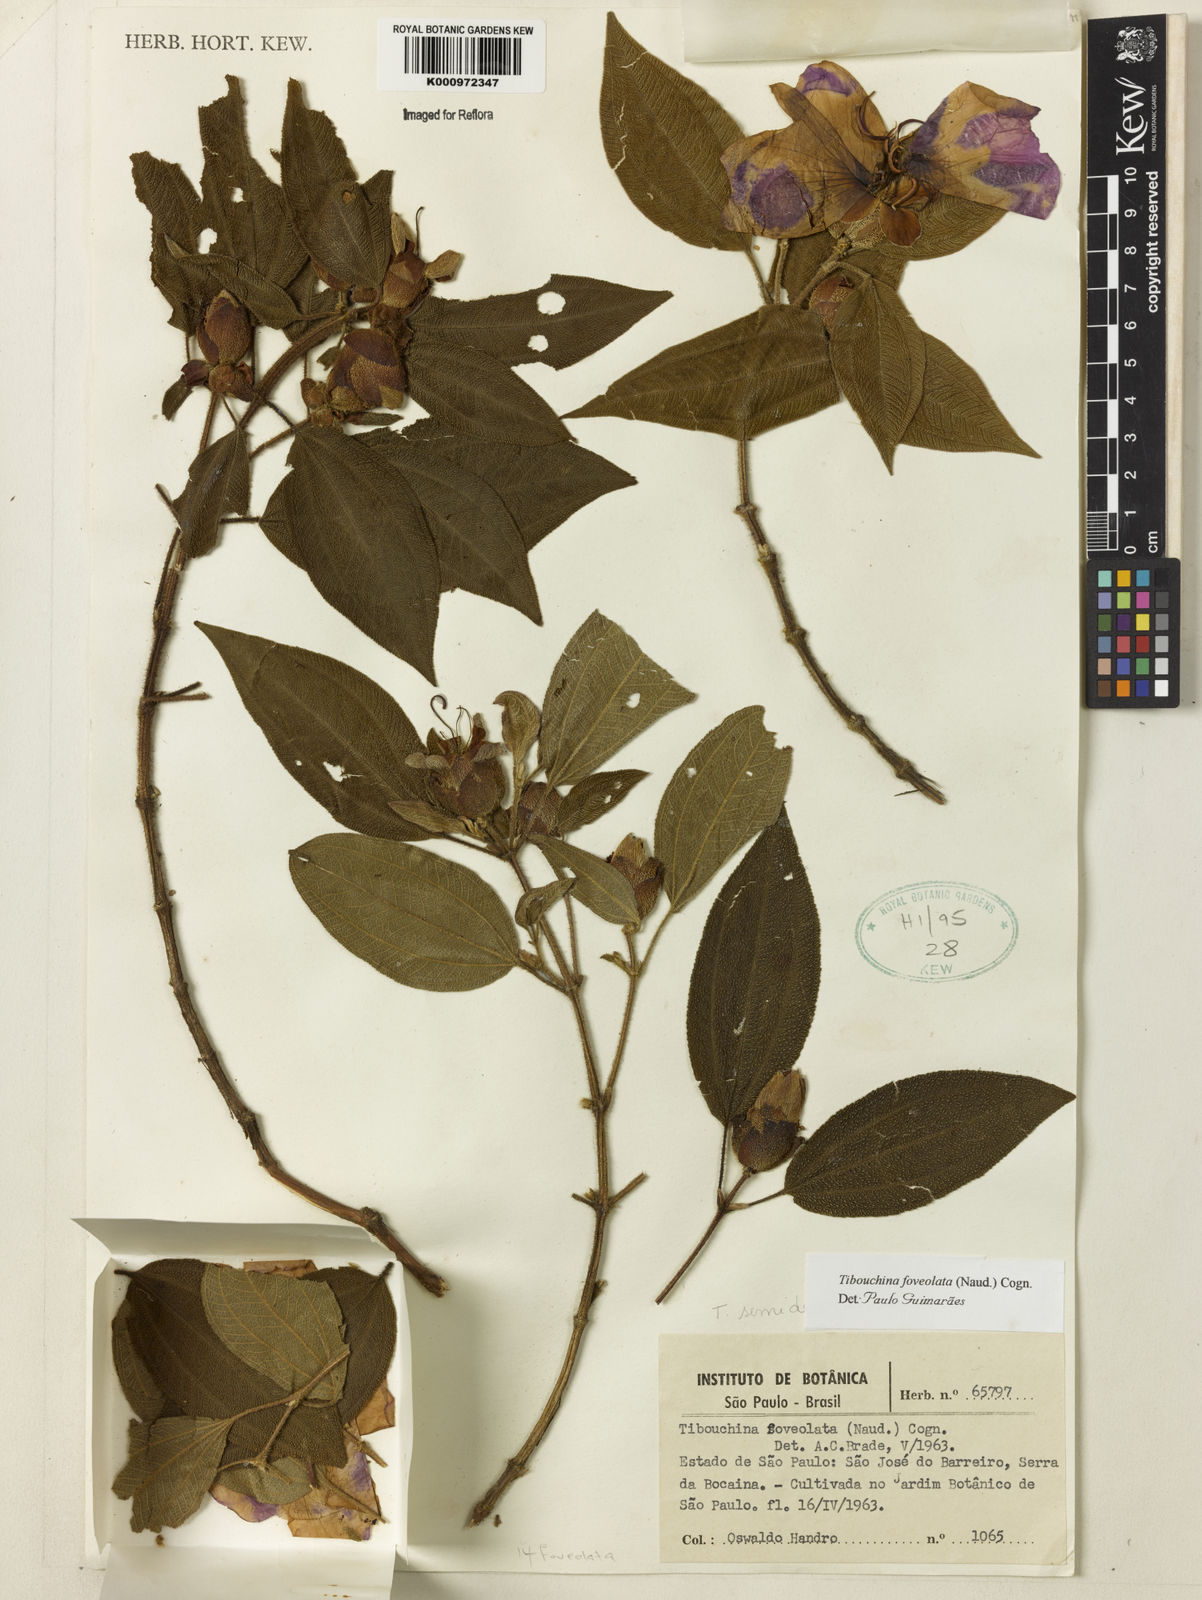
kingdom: Plantae
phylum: Tracheophyta
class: Magnoliopsida
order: Myrtales
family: Melastomataceae
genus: Pleroma
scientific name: Pleroma foveolatum
